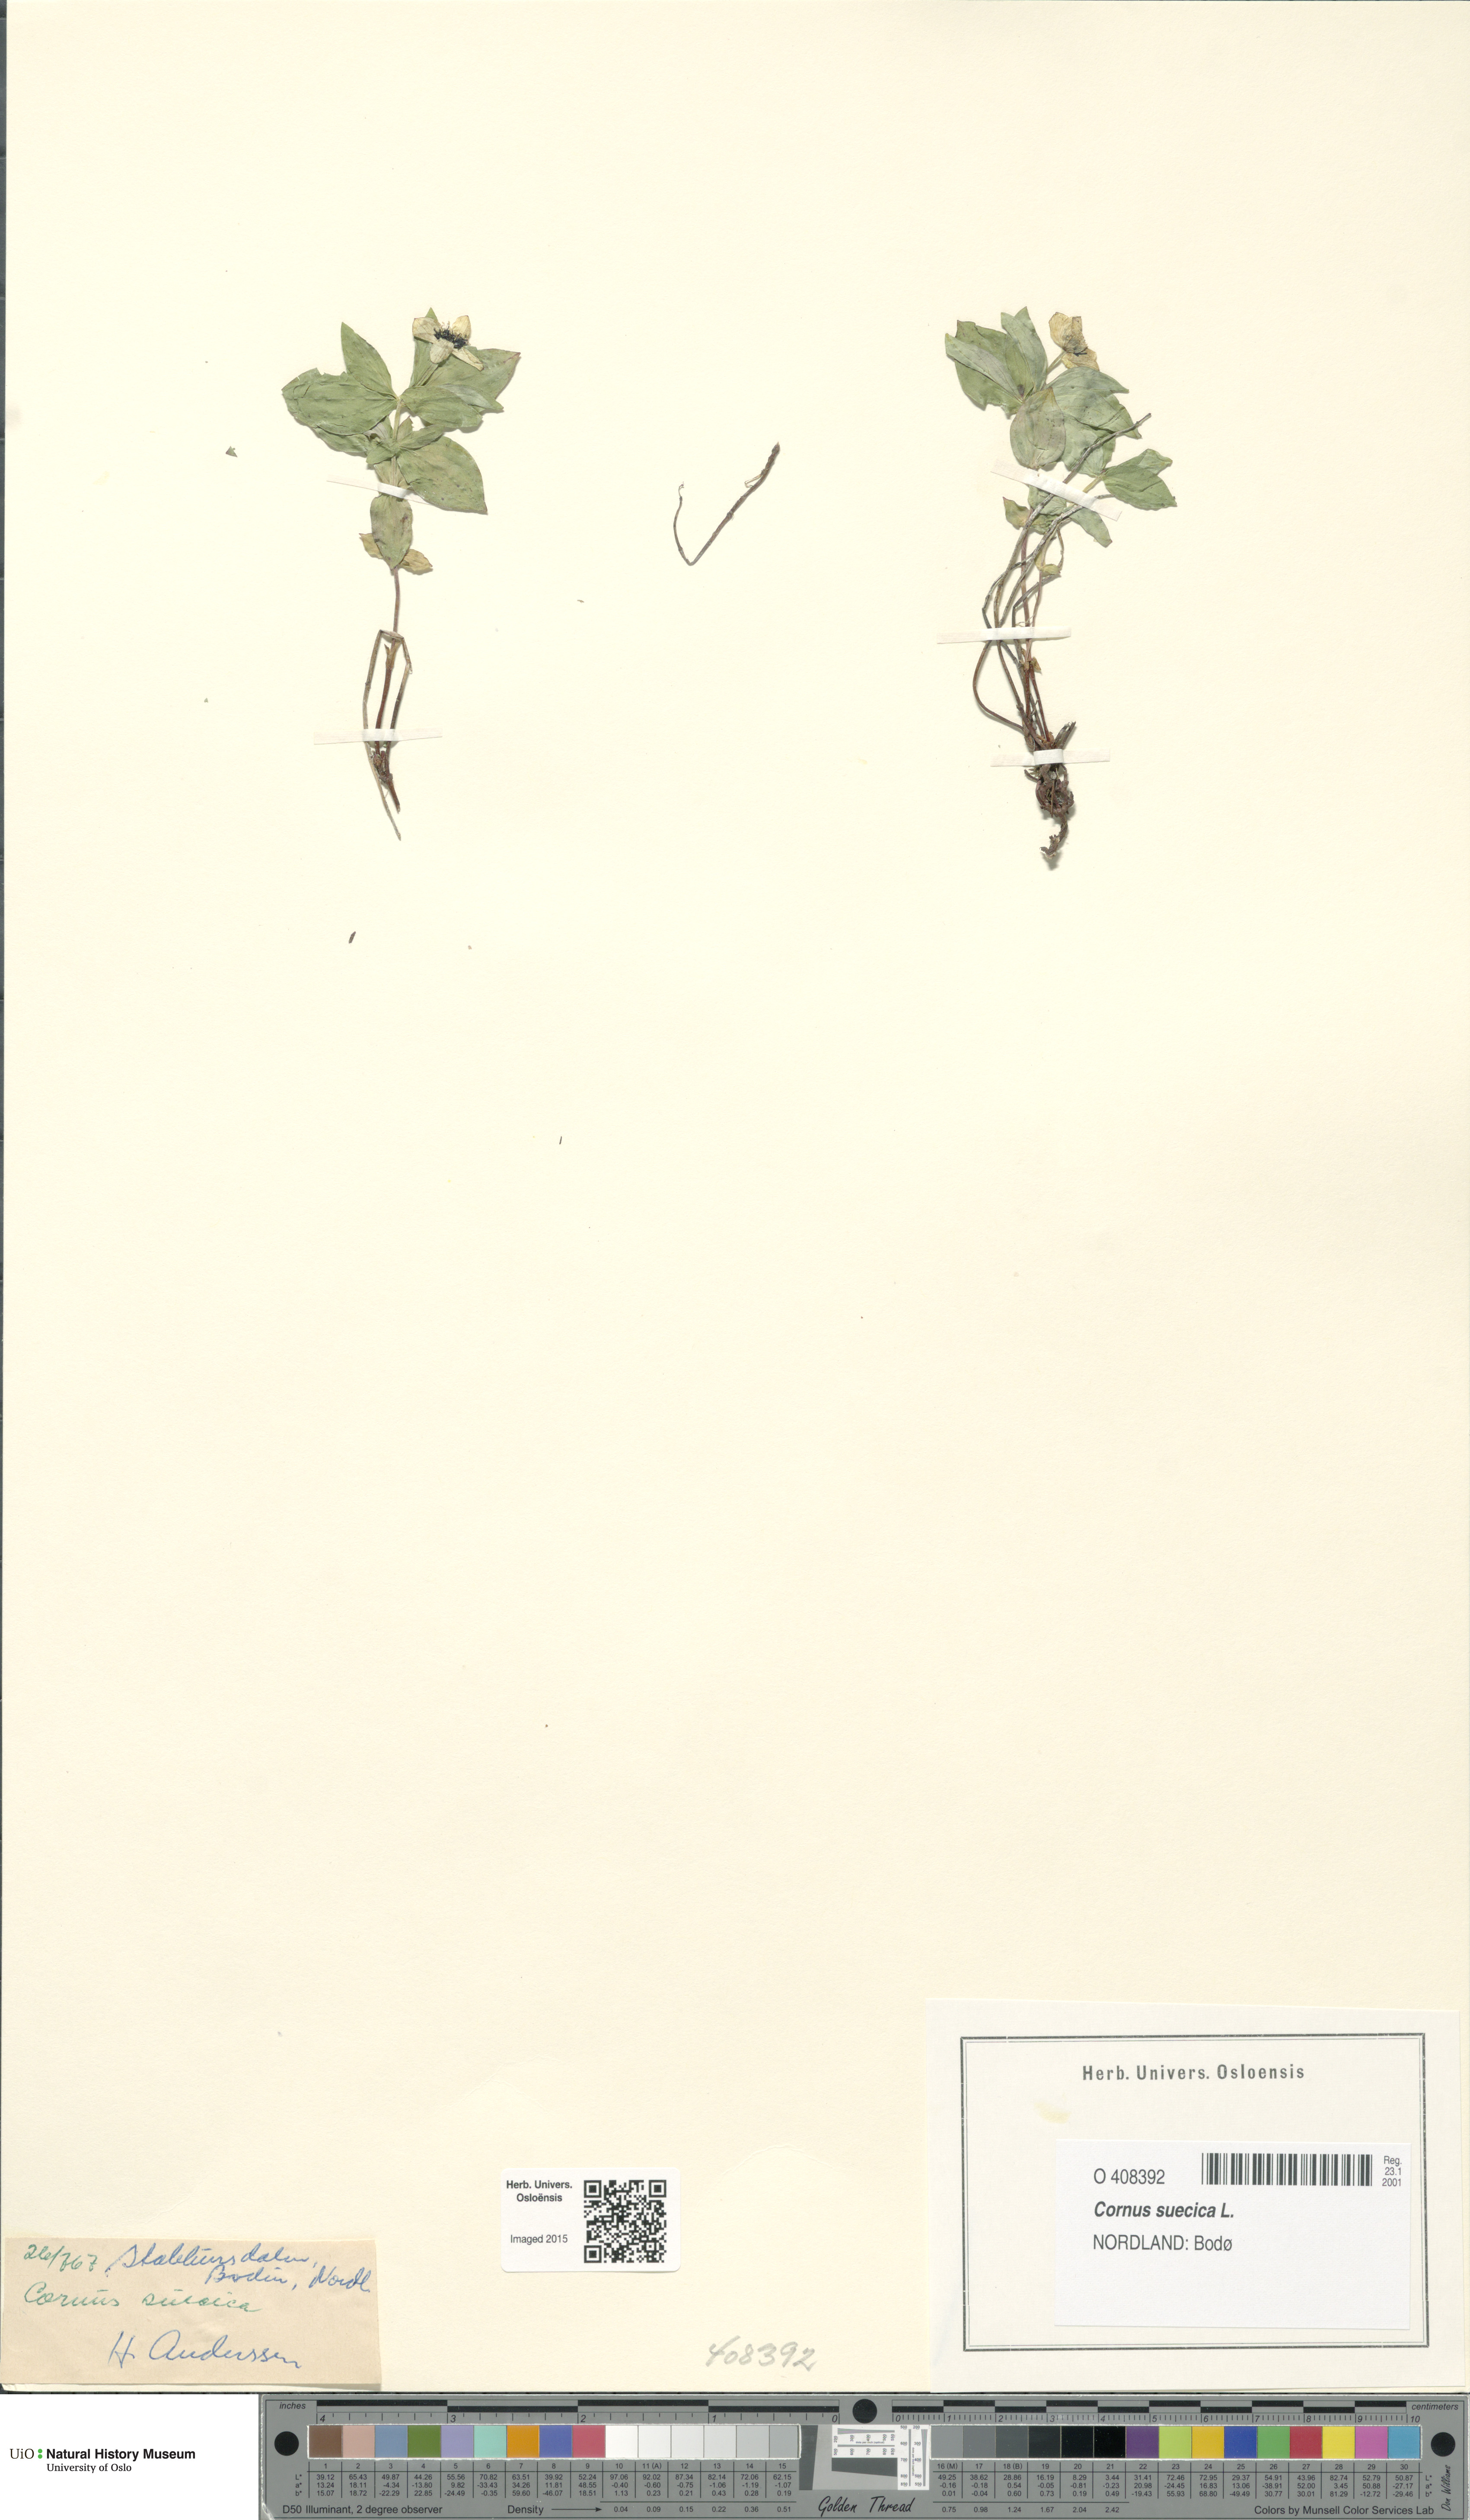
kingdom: Plantae
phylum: Tracheophyta
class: Magnoliopsida
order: Cornales
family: Cornaceae
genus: Cornus
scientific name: Cornus suecica
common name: Dwarf cornel
